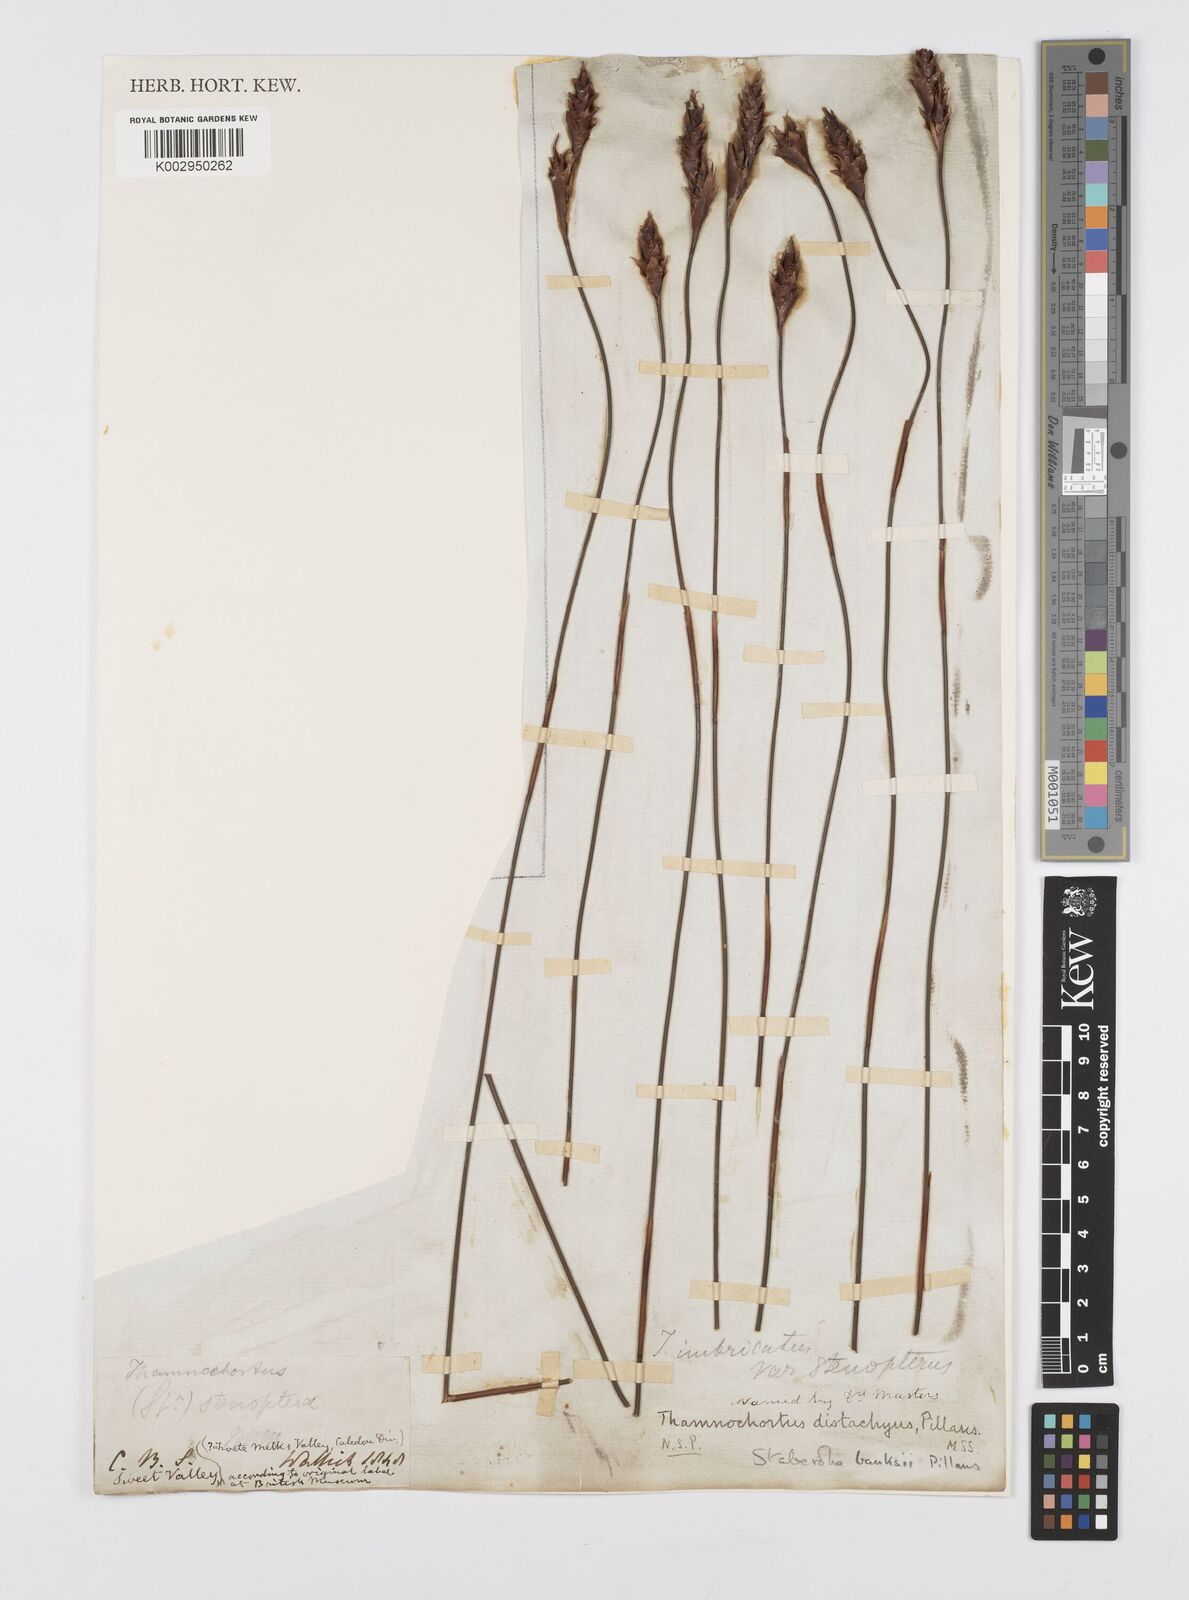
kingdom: Plantae
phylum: Tracheophyta
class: Liliopsida
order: Poales
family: Restionaceae
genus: Staberoha
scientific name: Staberoha banksii
